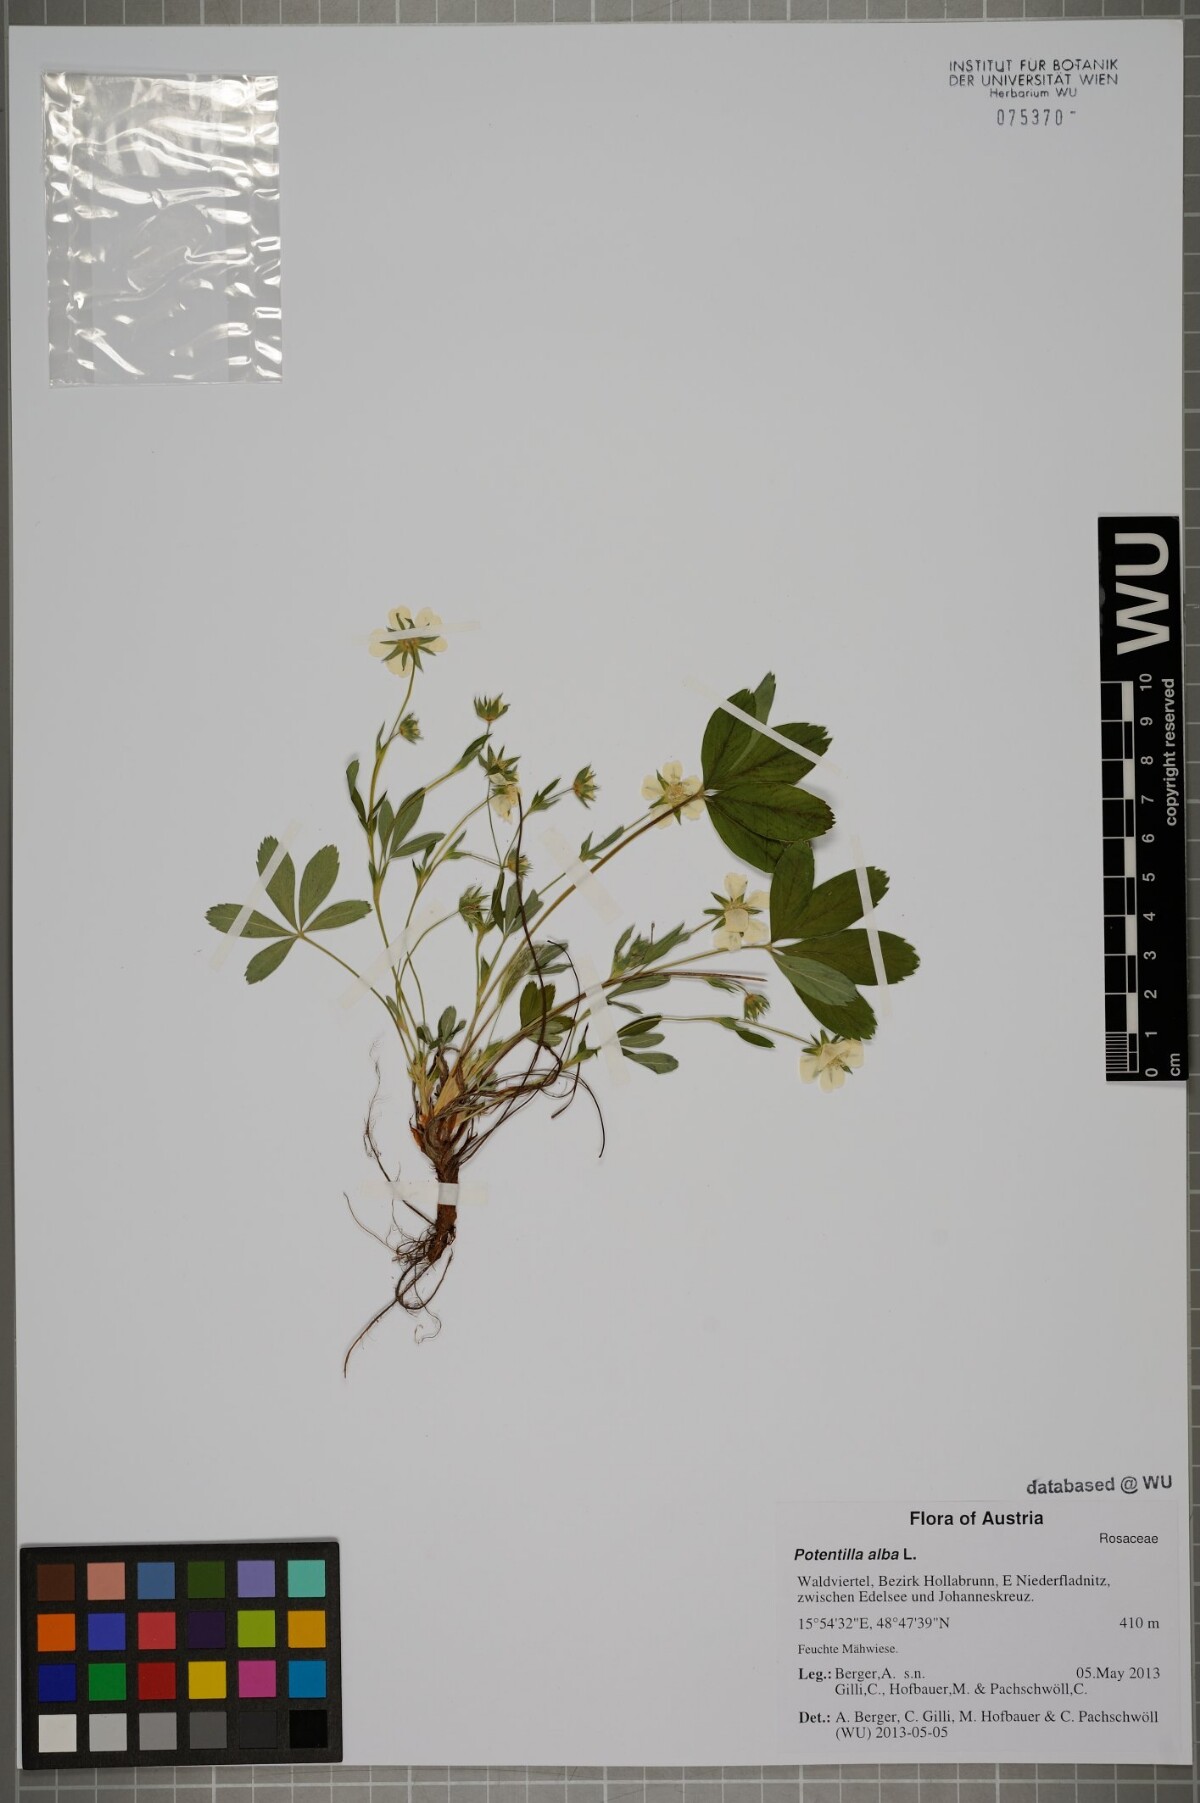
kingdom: Plantae
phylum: Tracheophyta
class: Magnoliopsida
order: Rosales
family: Rosaceae
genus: Potentilla
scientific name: Potentilla alba
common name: White cinquefoil
